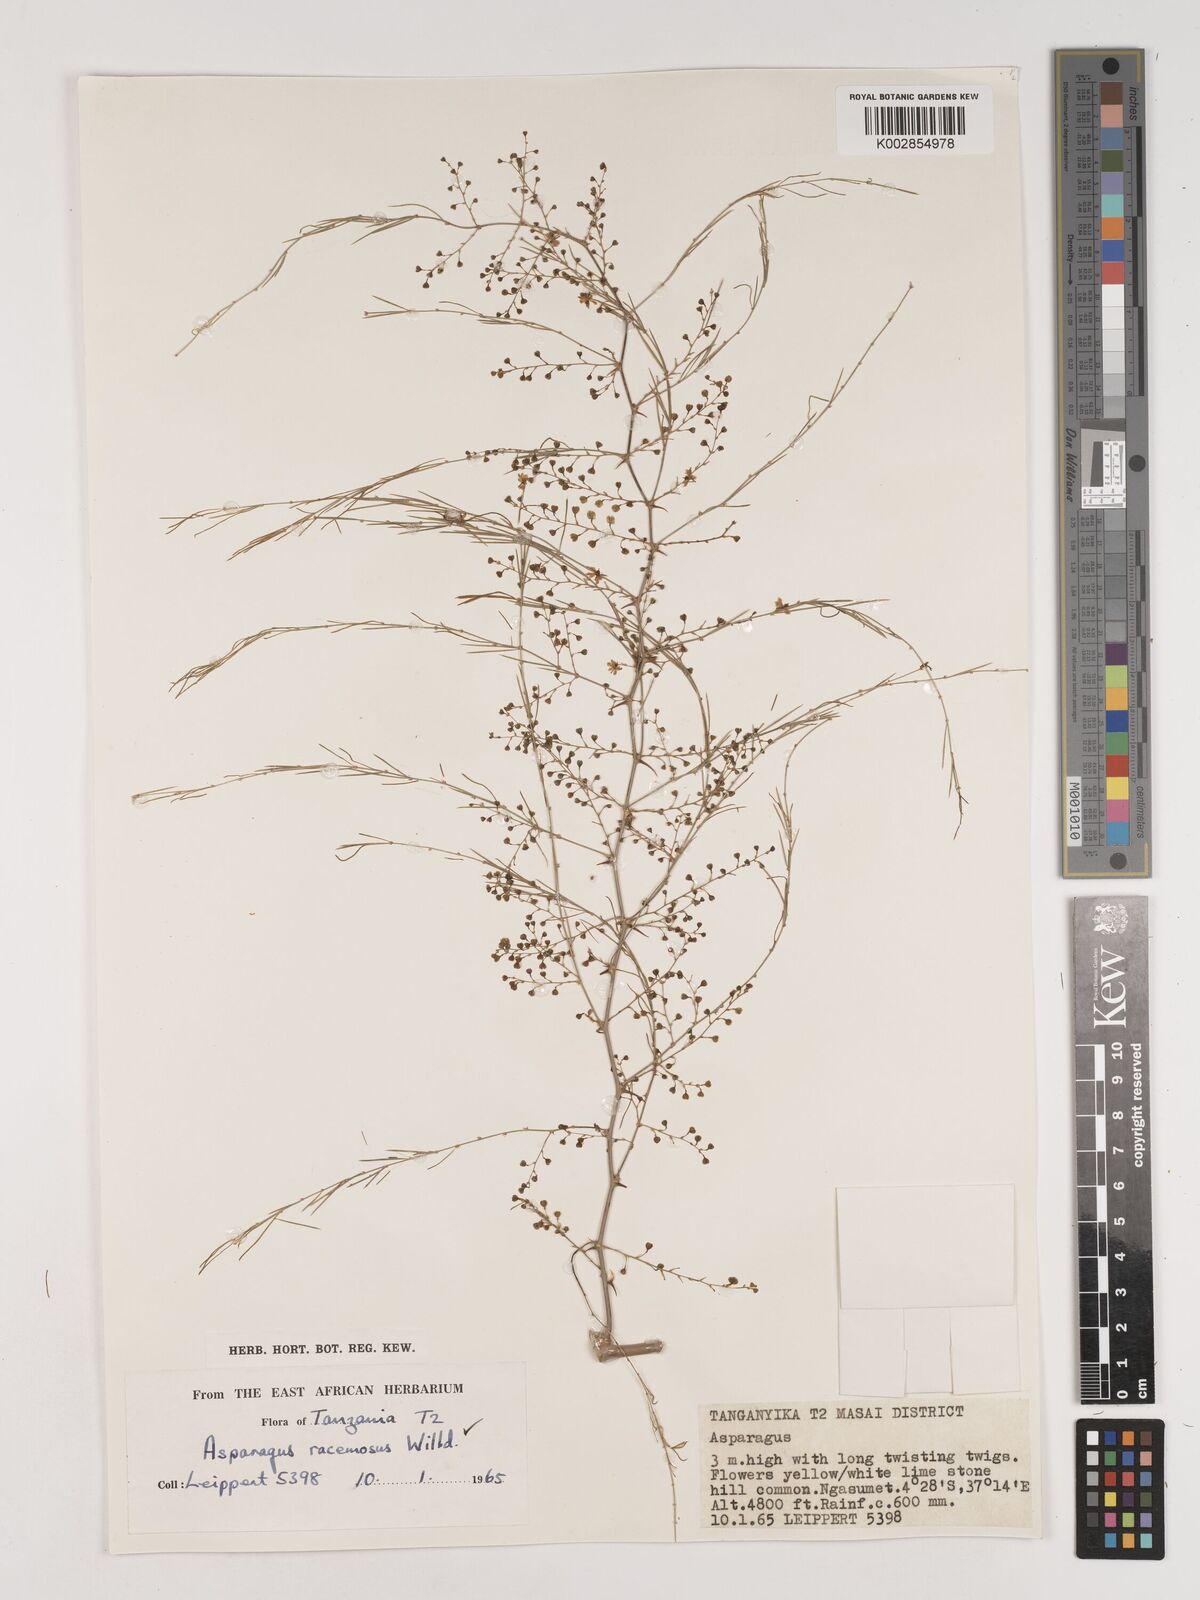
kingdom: Plantae
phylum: Tracheophyta
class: Liliopsida
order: Asparagales
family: Asparagaceae
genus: Asparagus
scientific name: Asparagus buchananii
